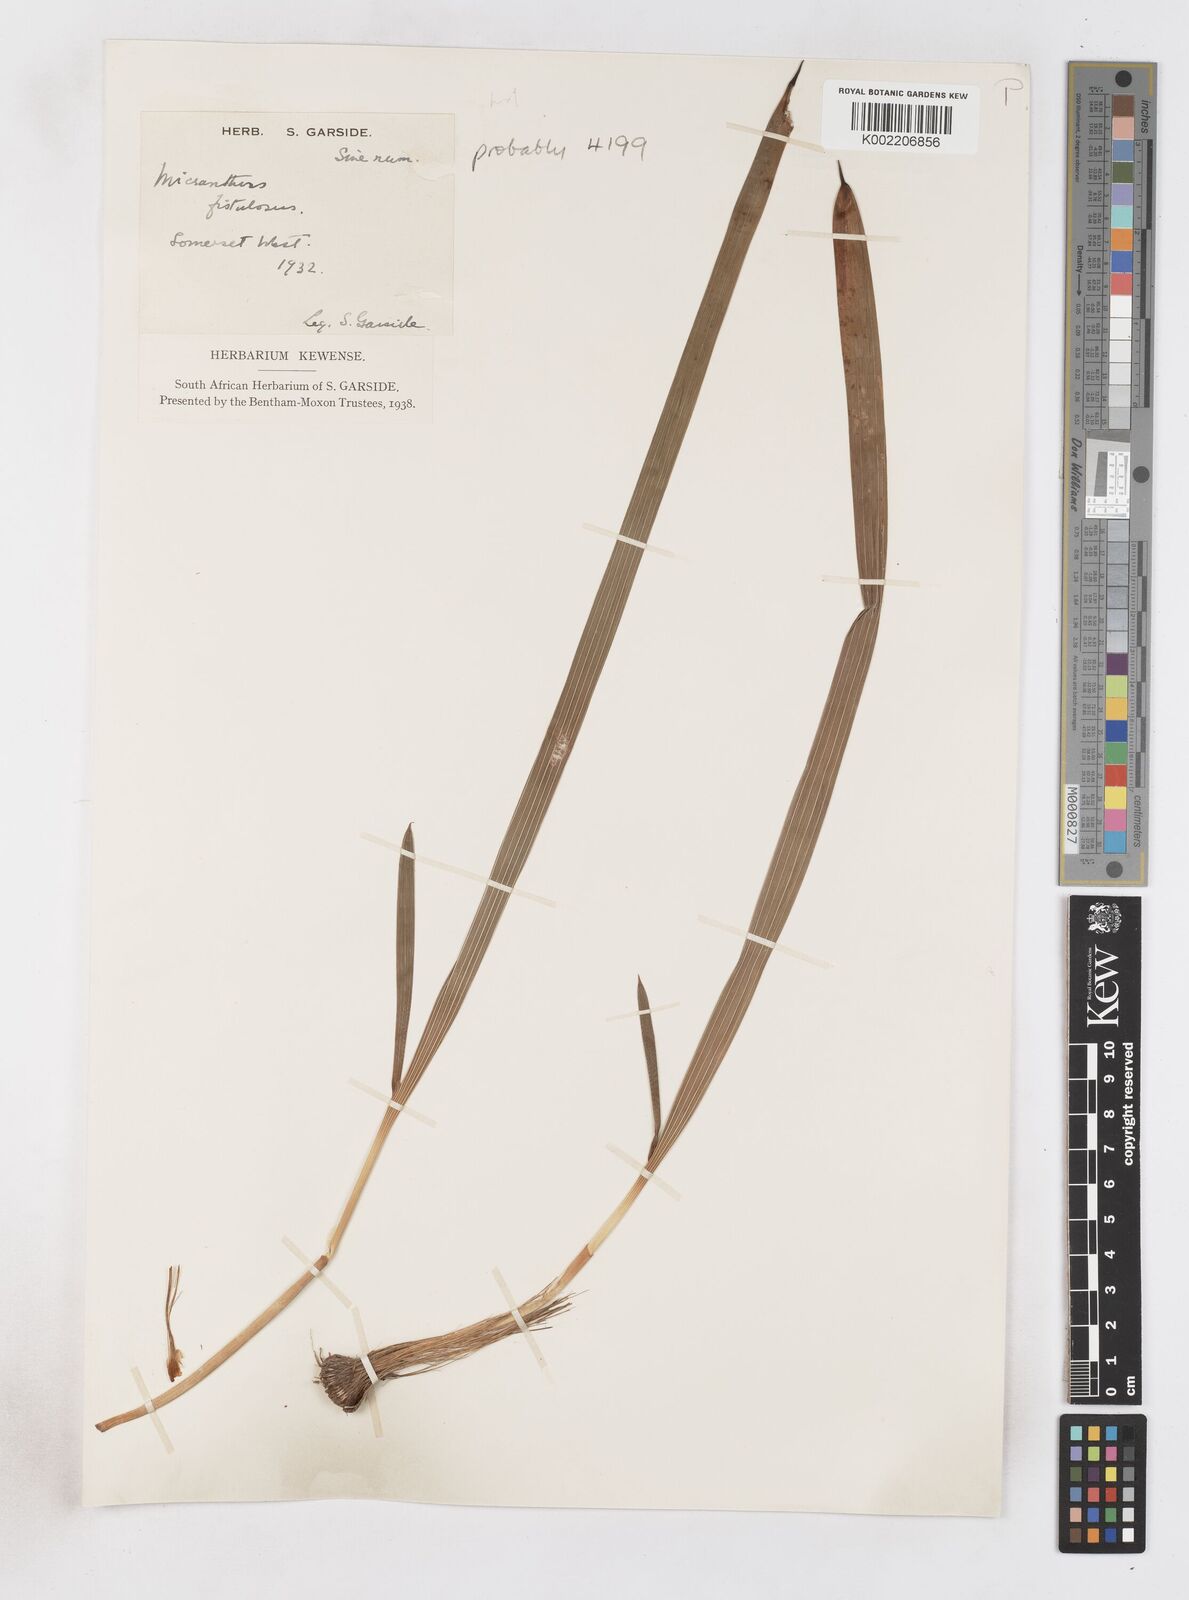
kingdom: Plantae
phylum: Tracheophyta
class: Liliopsida
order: Asparagales
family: Iridaceae
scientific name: Iridaceae
